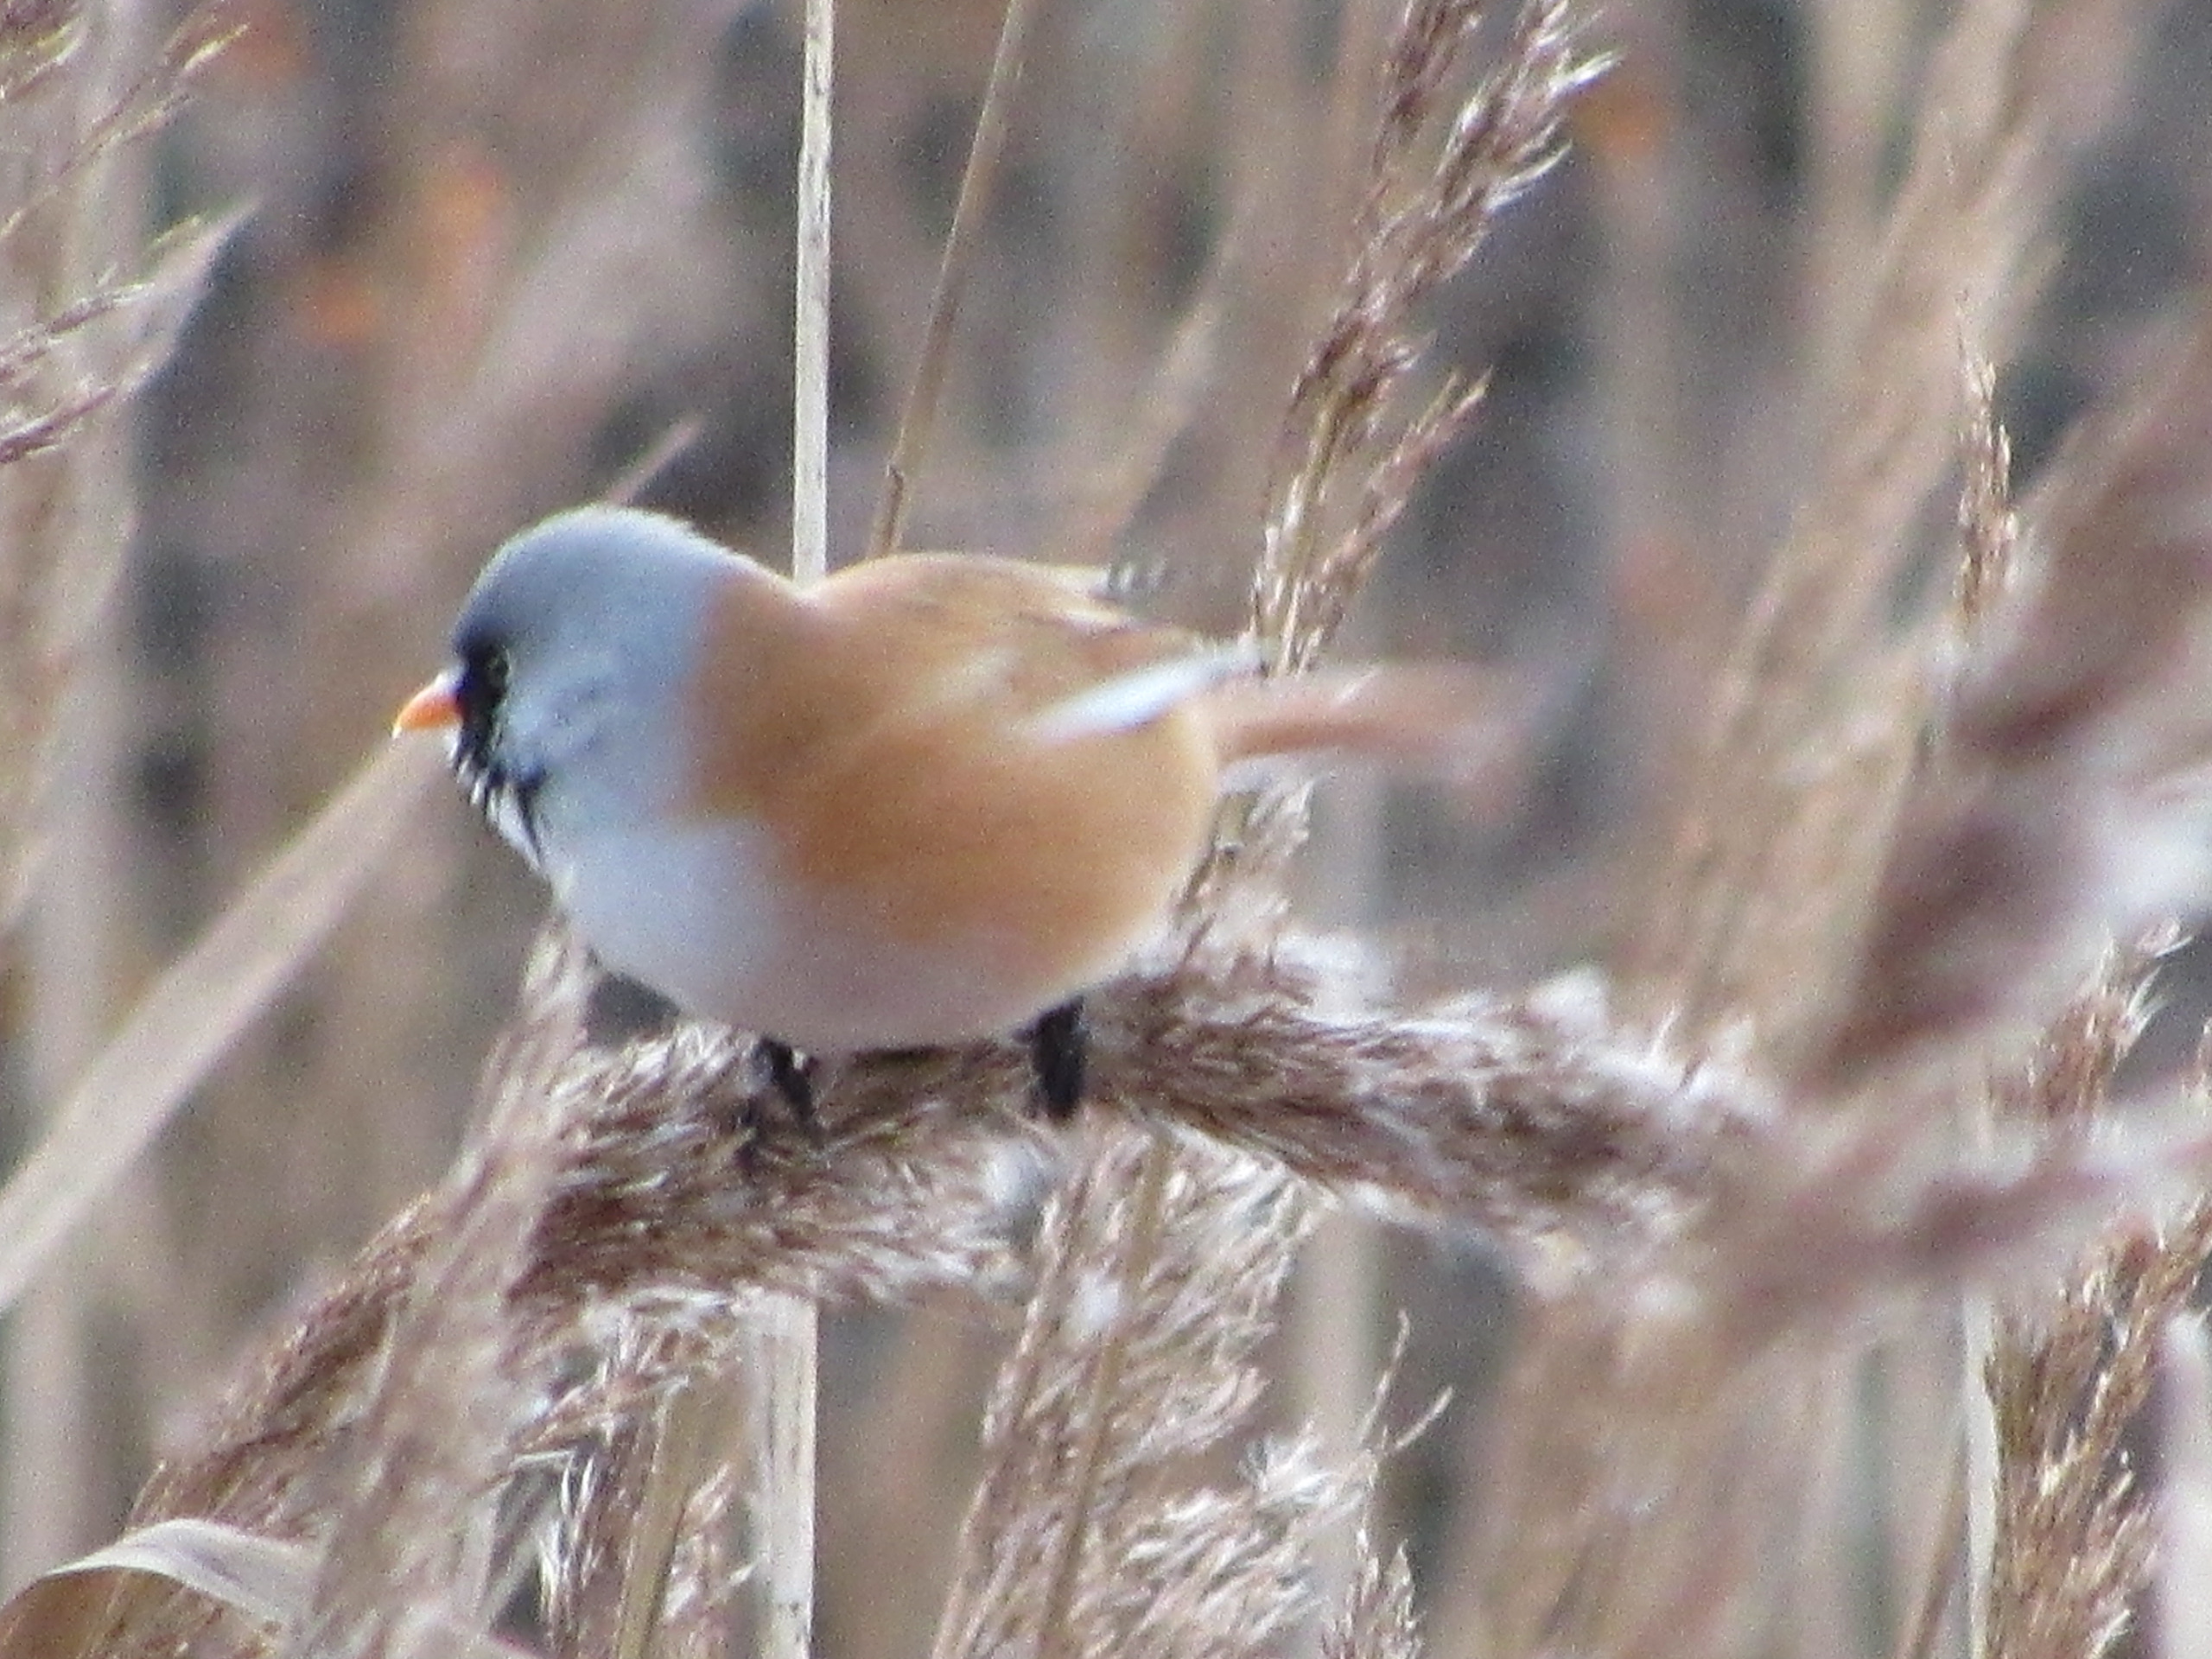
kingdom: Animalia
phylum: Chordata
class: Aves
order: Passeriformes
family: Panuridae
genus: Panurus
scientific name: Panurus biarmicus
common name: Skægmejse
